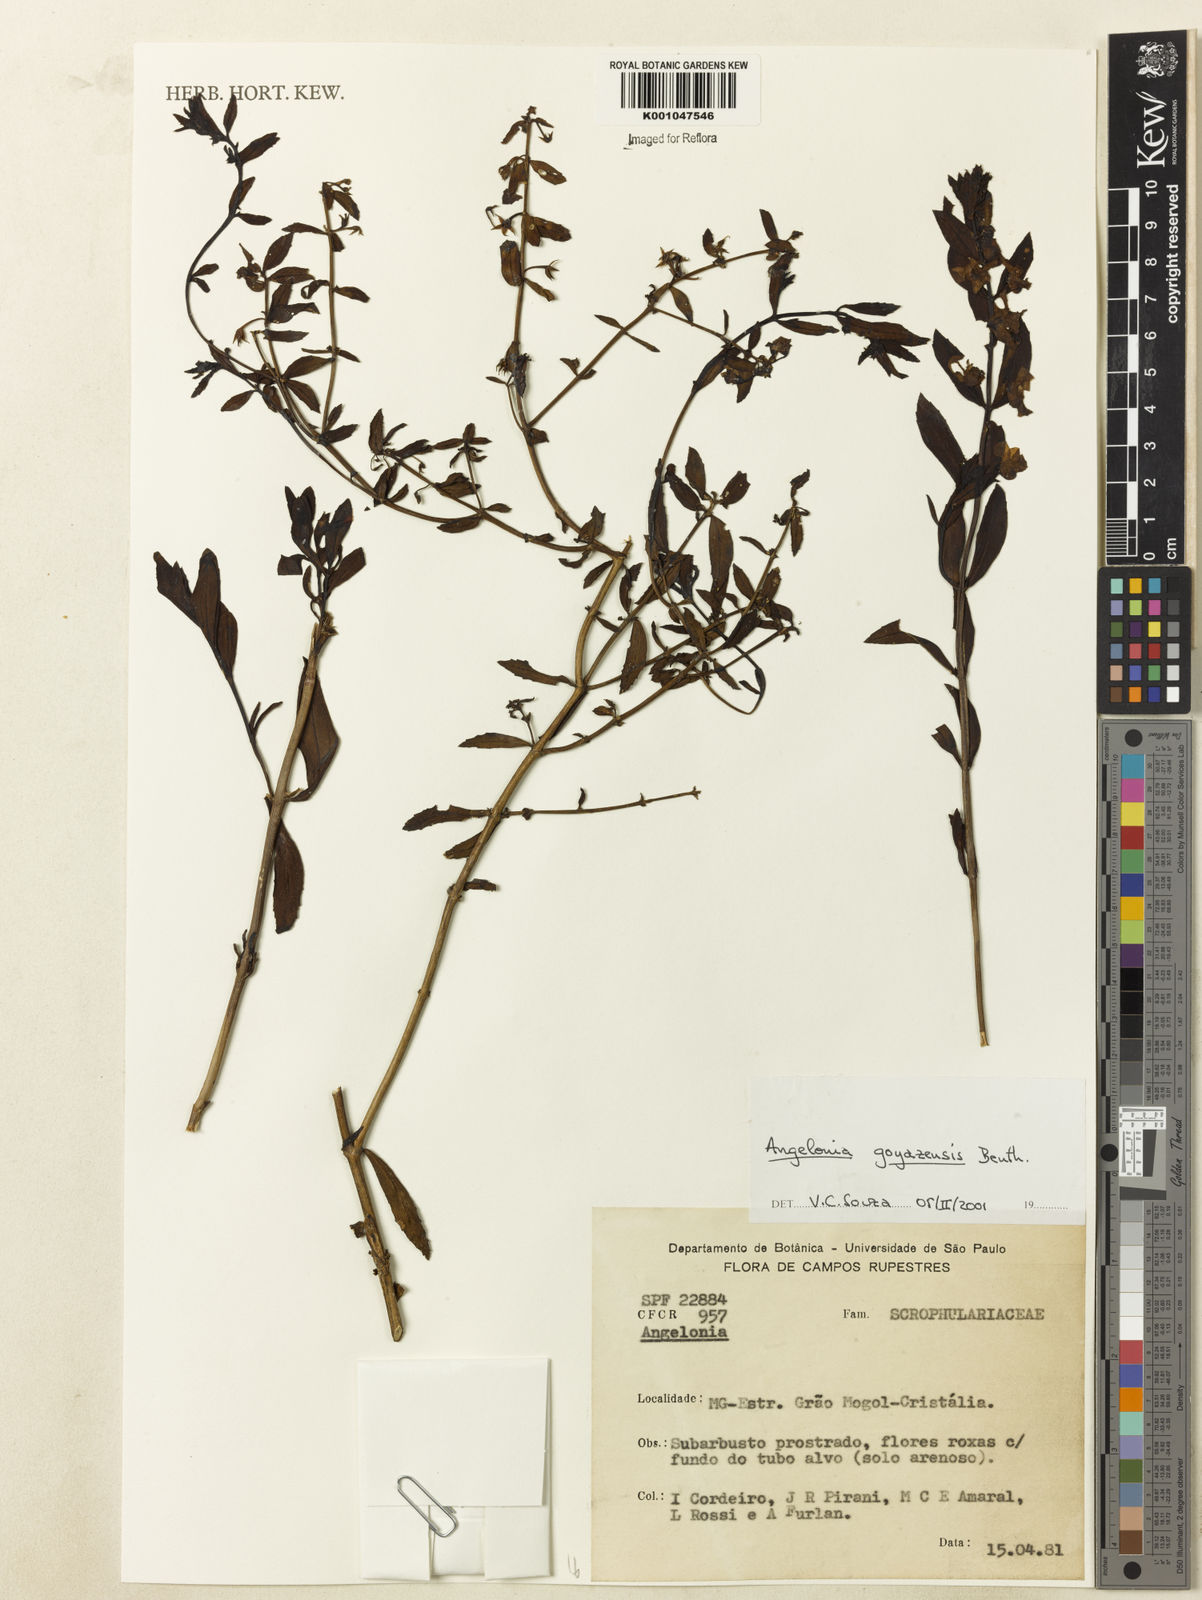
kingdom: Plantae
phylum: Tracheophyta
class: Magnoliopsida
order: Lamiales
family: Plantaginaceae
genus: Angelonia
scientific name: Angelonia goyazensis
